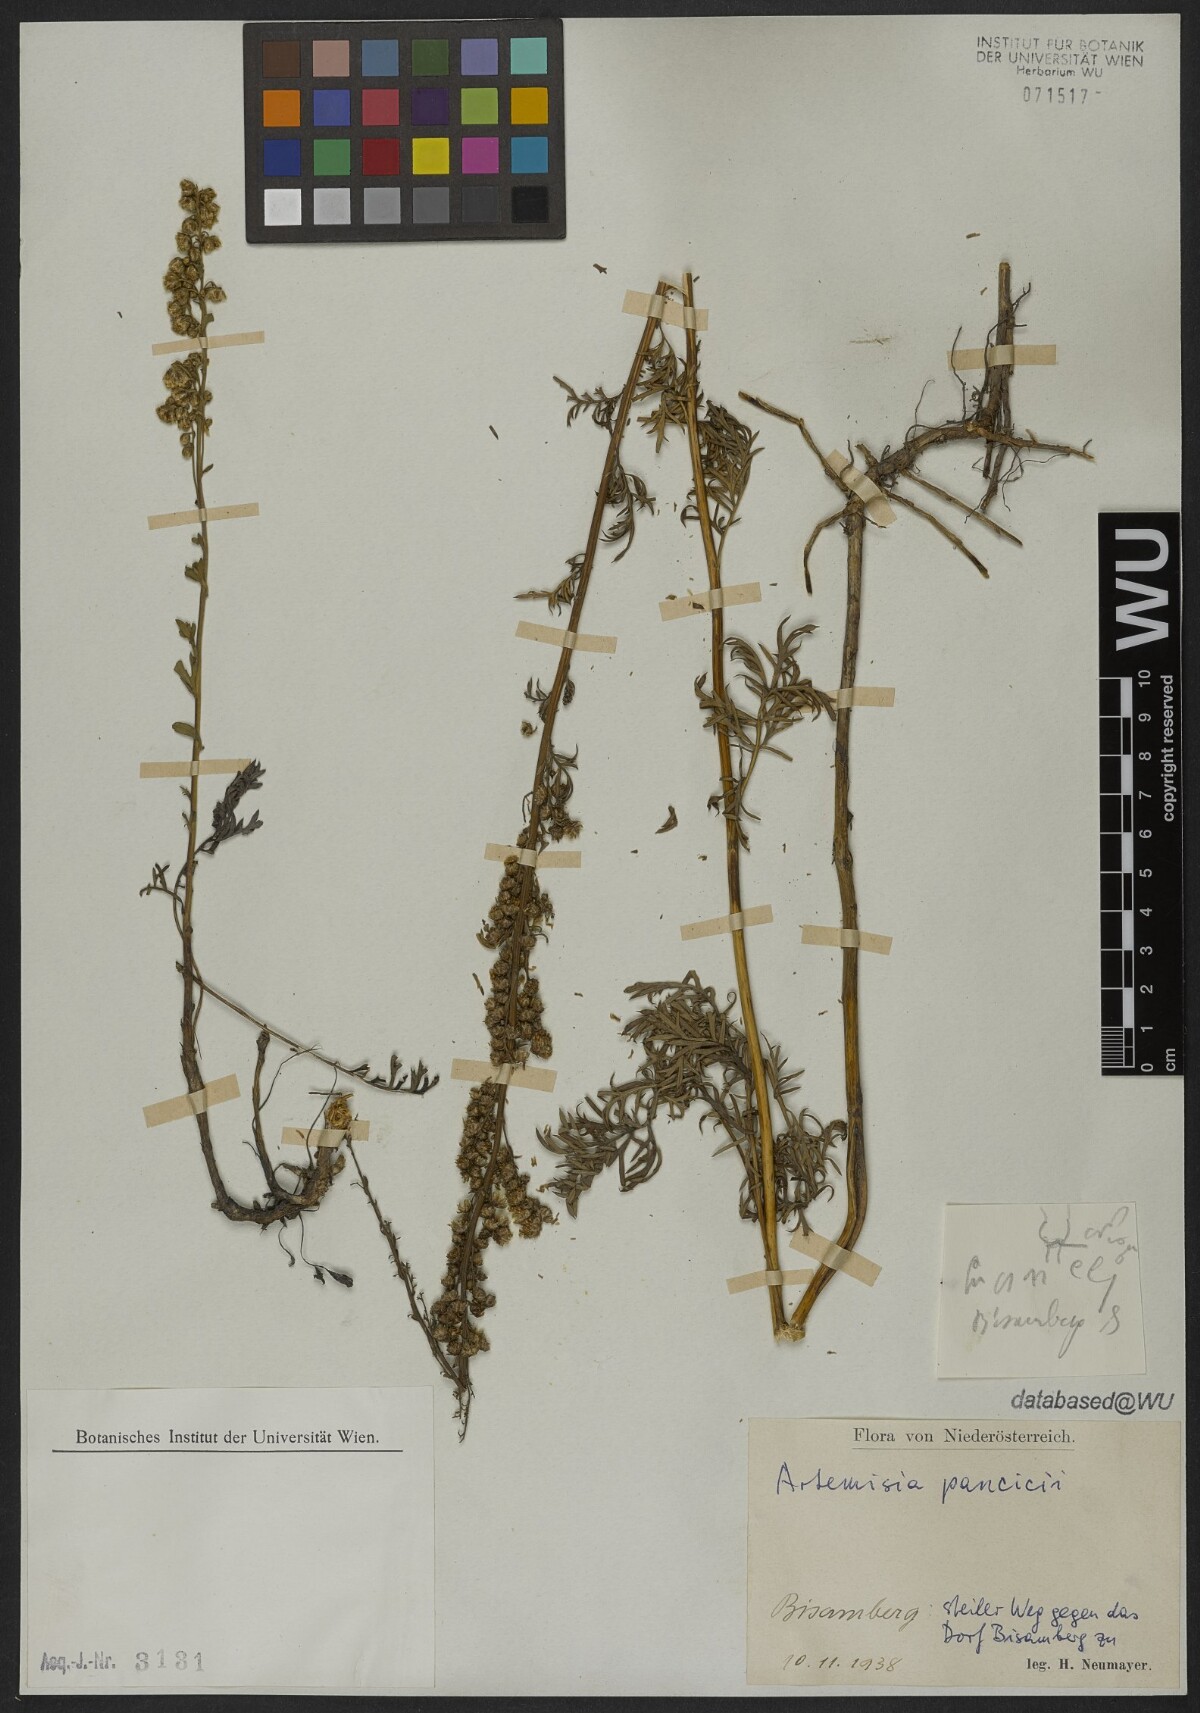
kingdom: Plantae
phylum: Tracheophyta
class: Magnoliopsida
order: Asterales
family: Asteraceae
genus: Artemisia
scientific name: Artemisia pancicii
